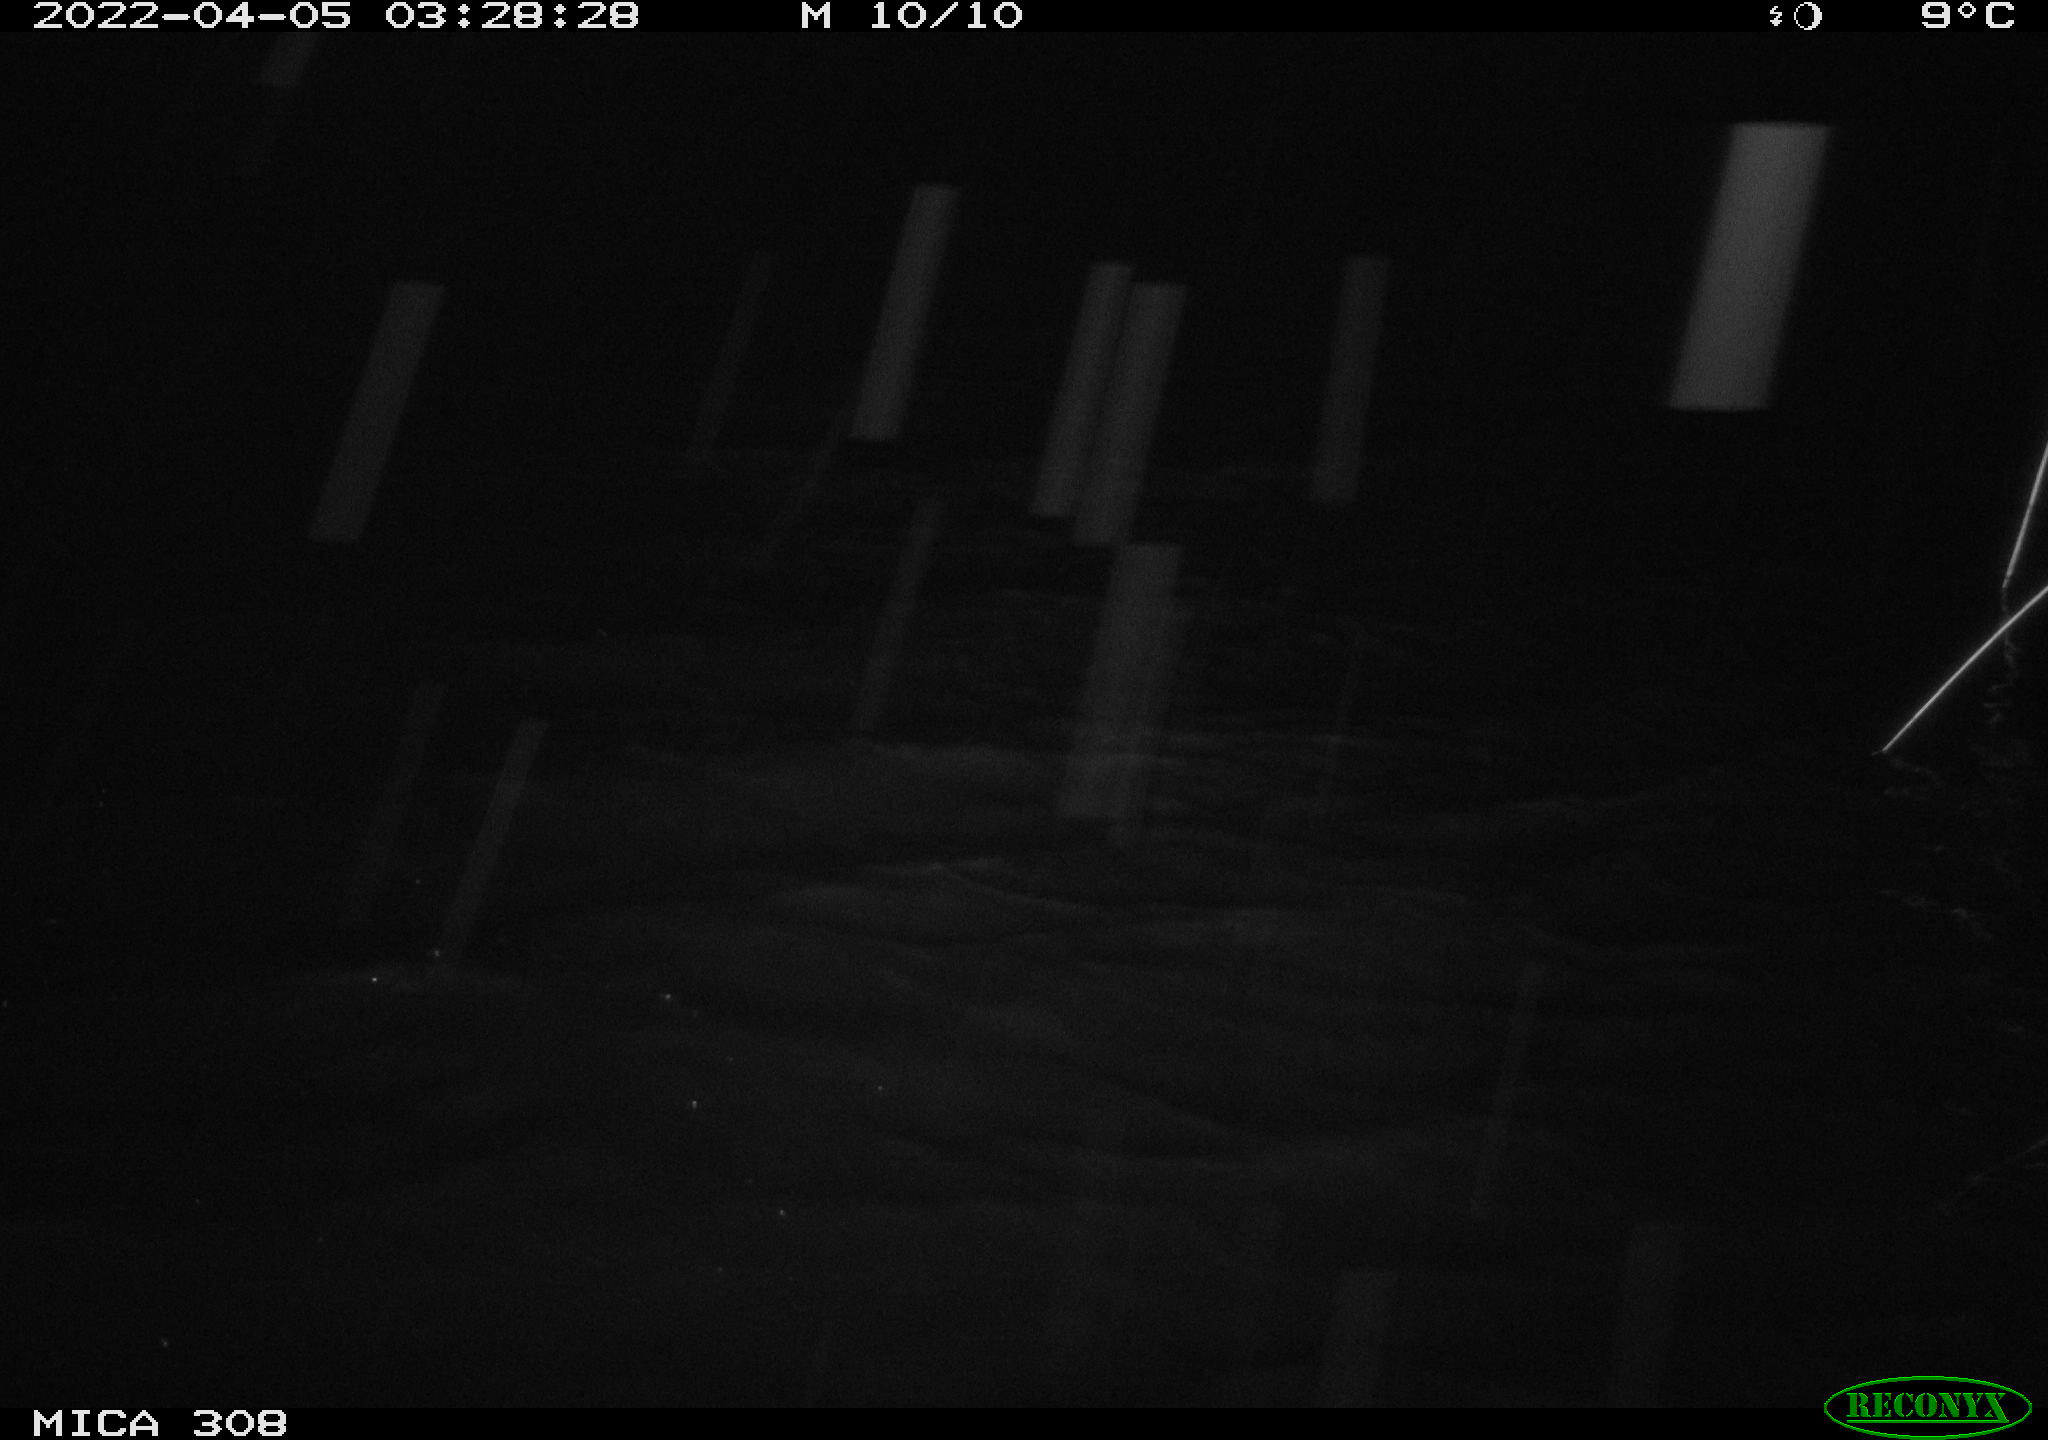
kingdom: Animalia
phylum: Chordata
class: Aves
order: Anseriformes
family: Anatidae
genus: Anas
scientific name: Anas platyrhynchos
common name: Mallard
